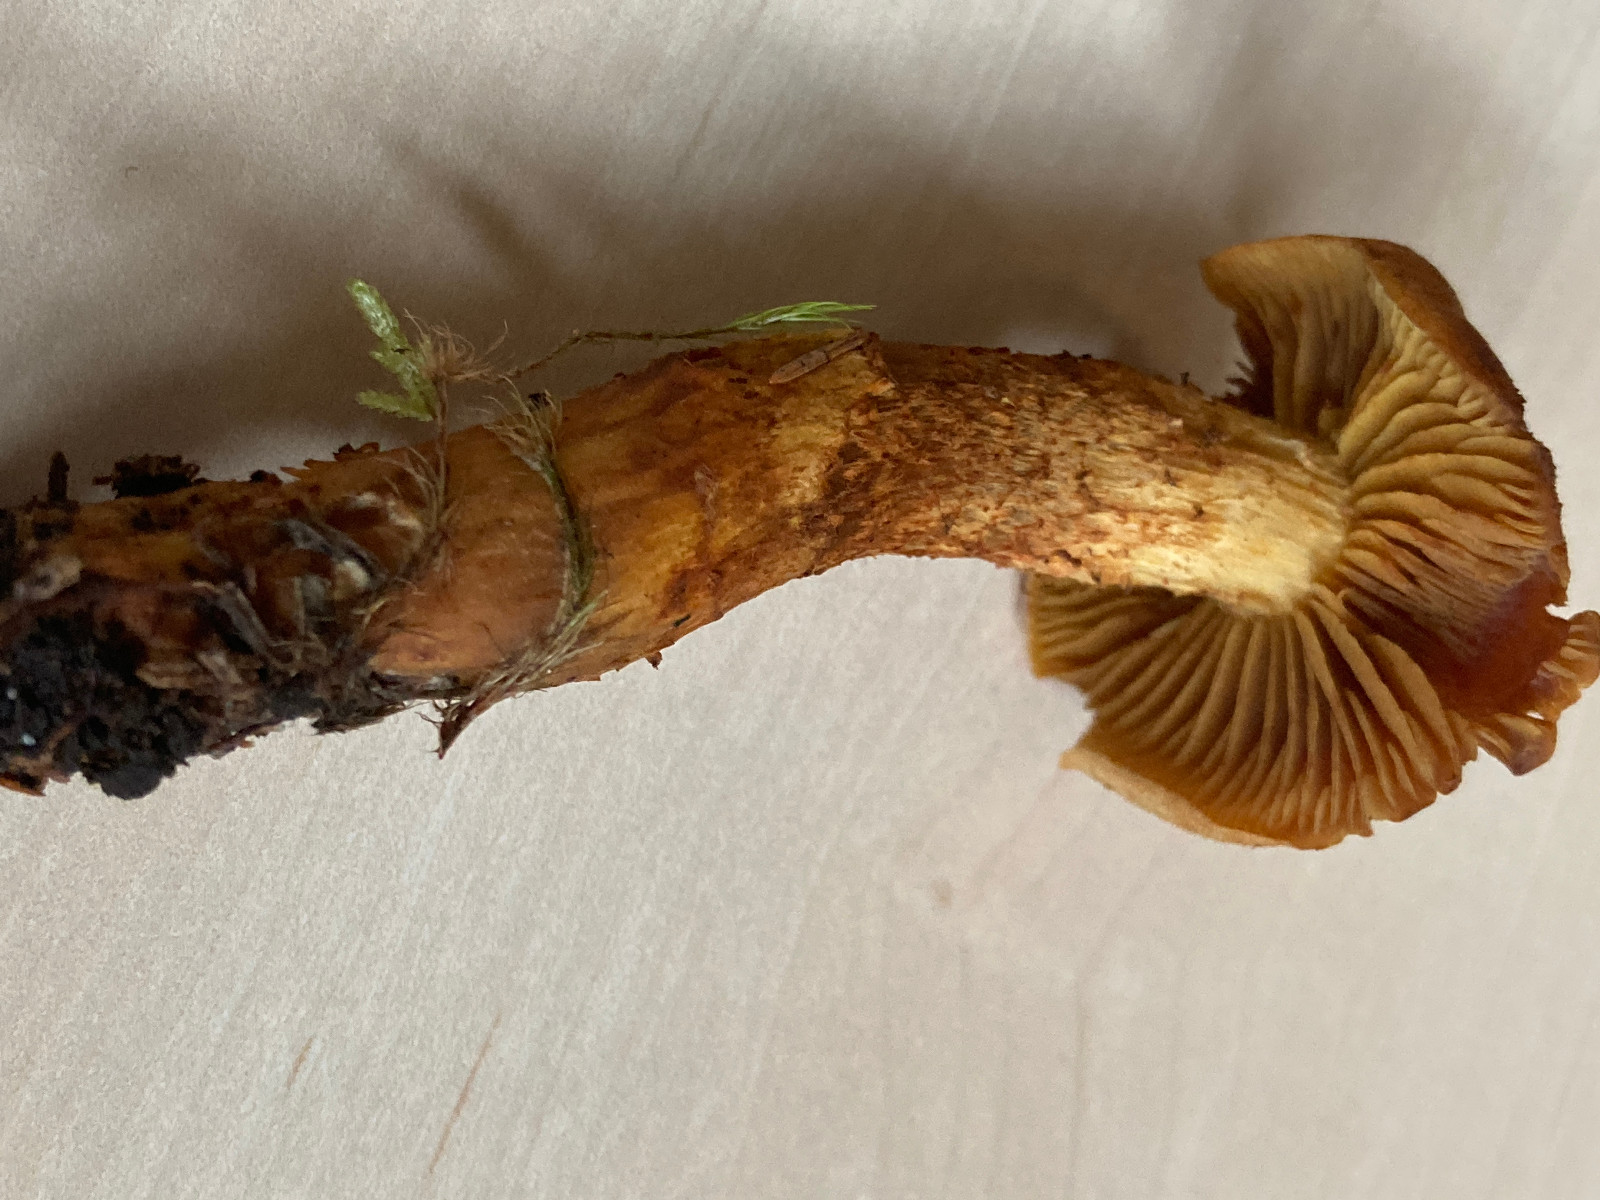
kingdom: Fungi
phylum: Basidiomycota
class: Agaricomycetes
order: Agaricales
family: Cortinariaceae
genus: Cortinarius
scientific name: Cortinarius
